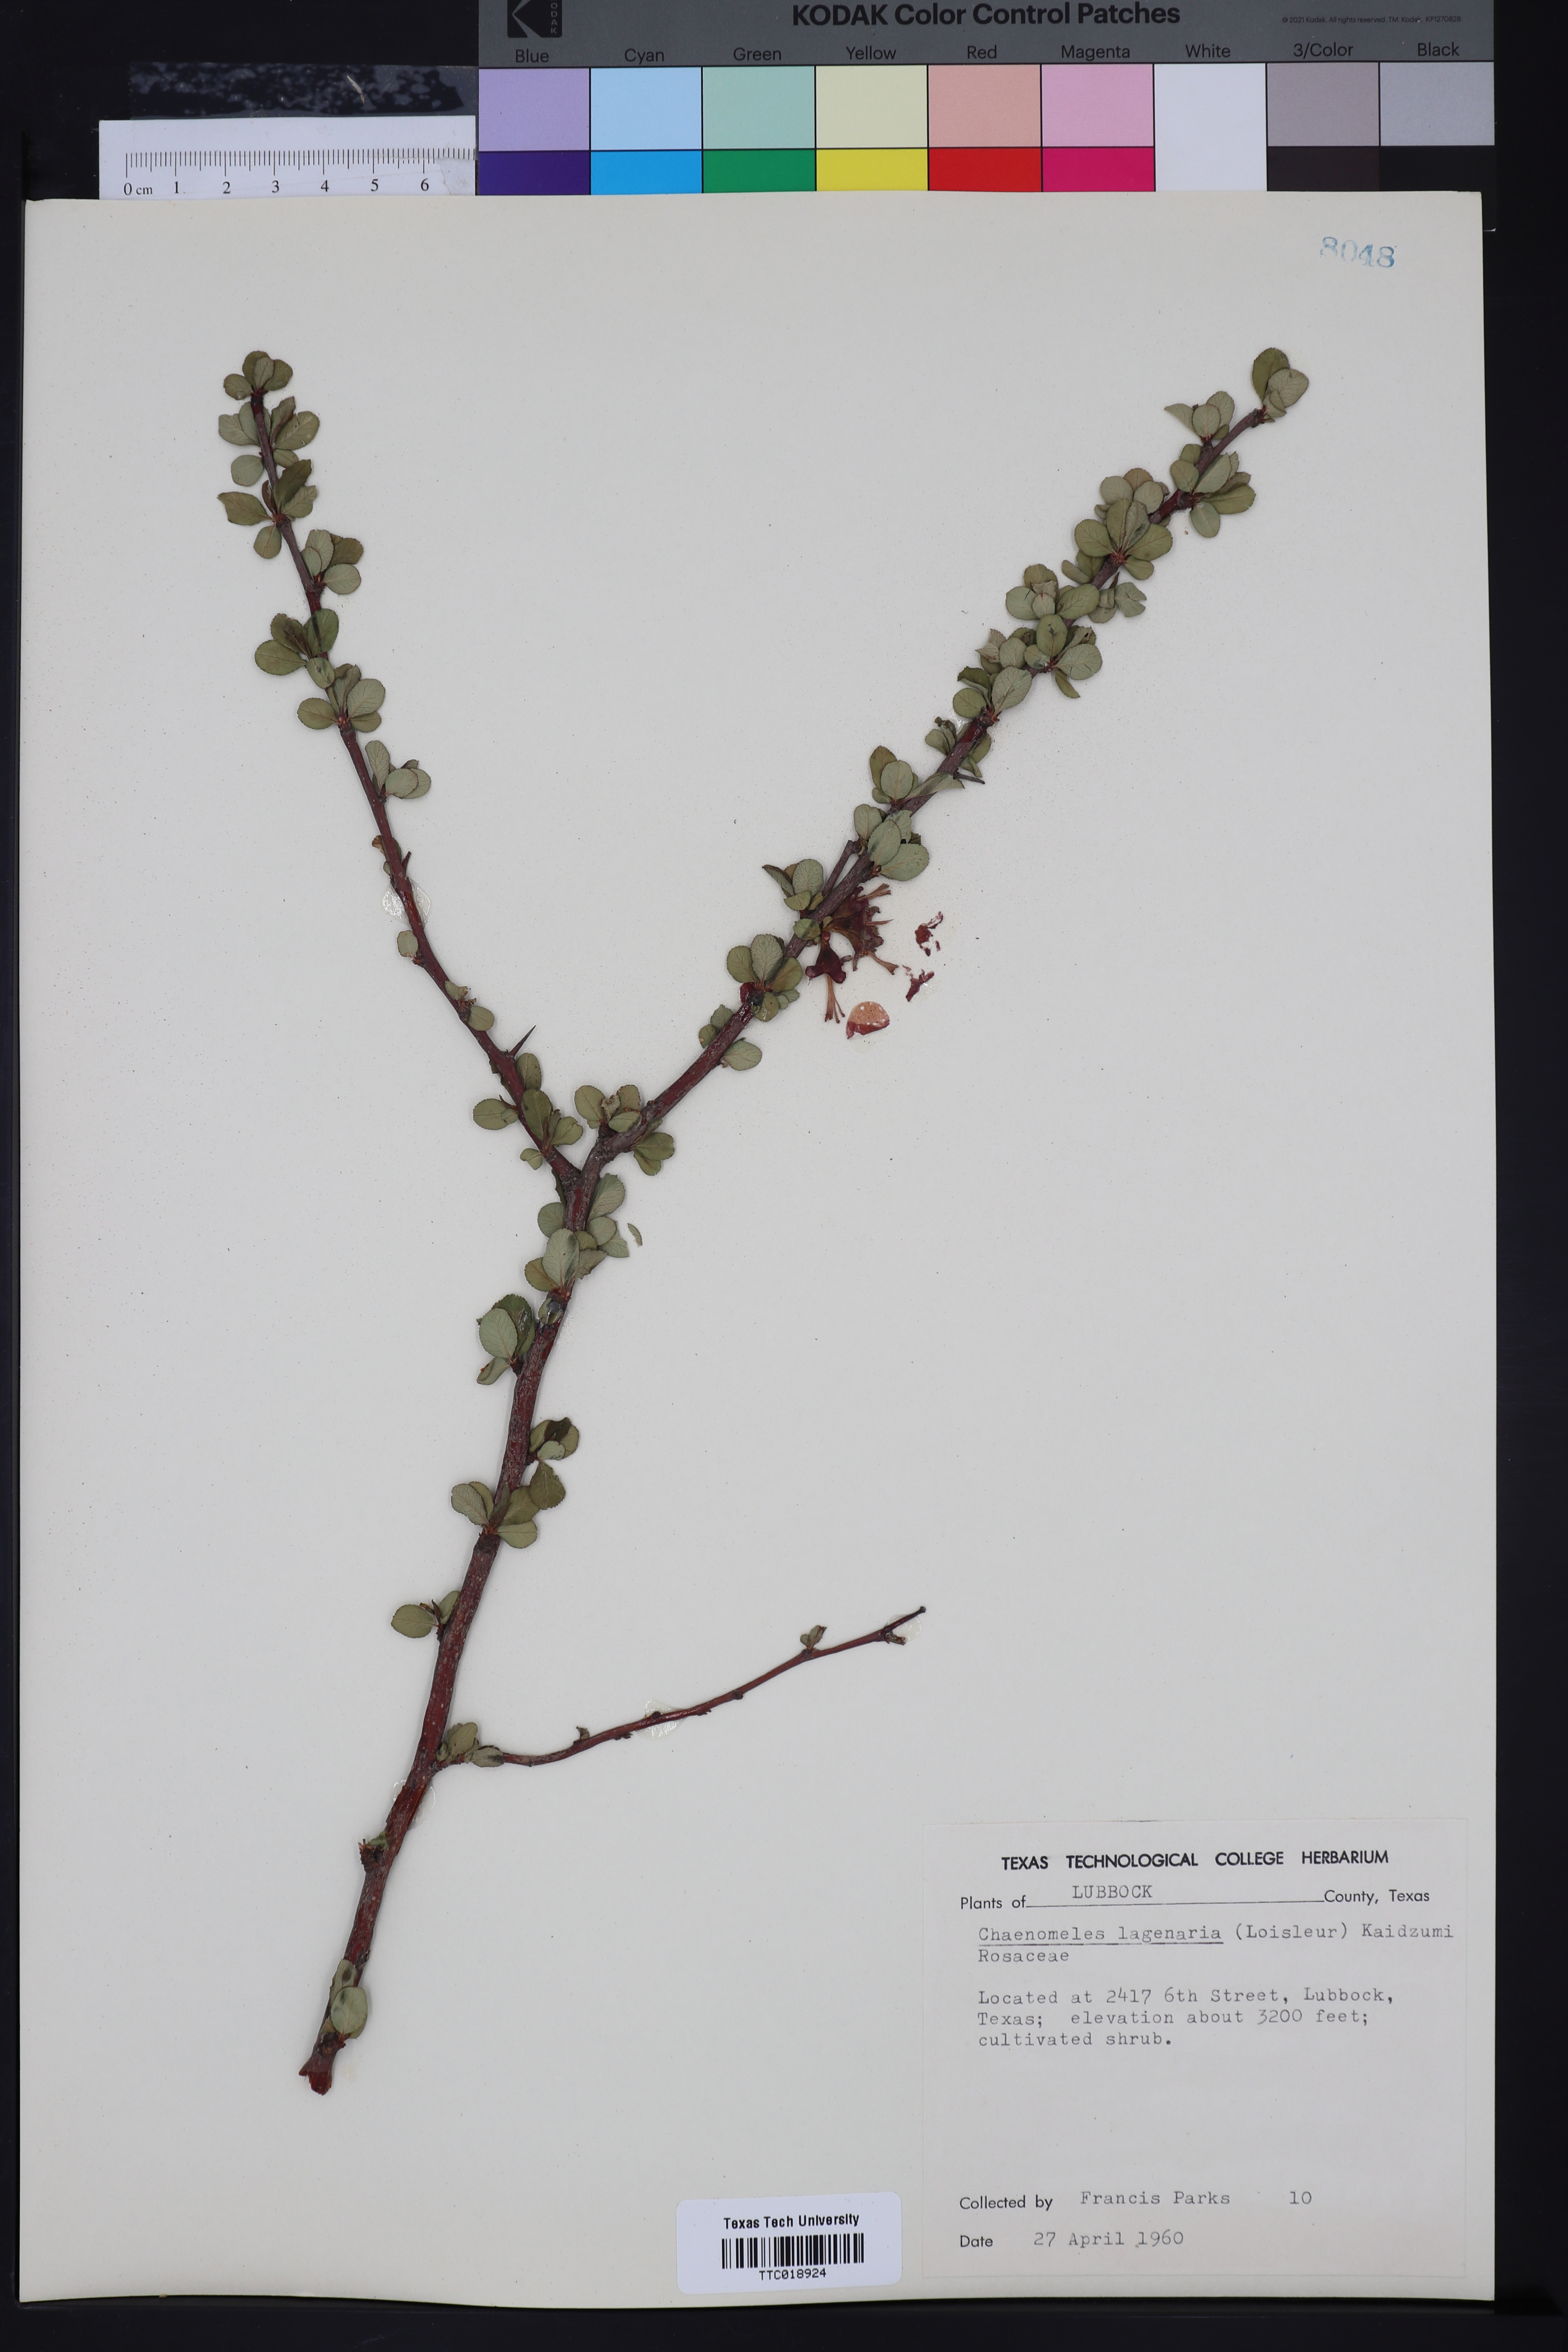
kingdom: Plantae
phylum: Tracheophyta
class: Magnoliopsida
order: Rosales
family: Rosaceae
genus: Chaenomeles
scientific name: Chaenomeles
